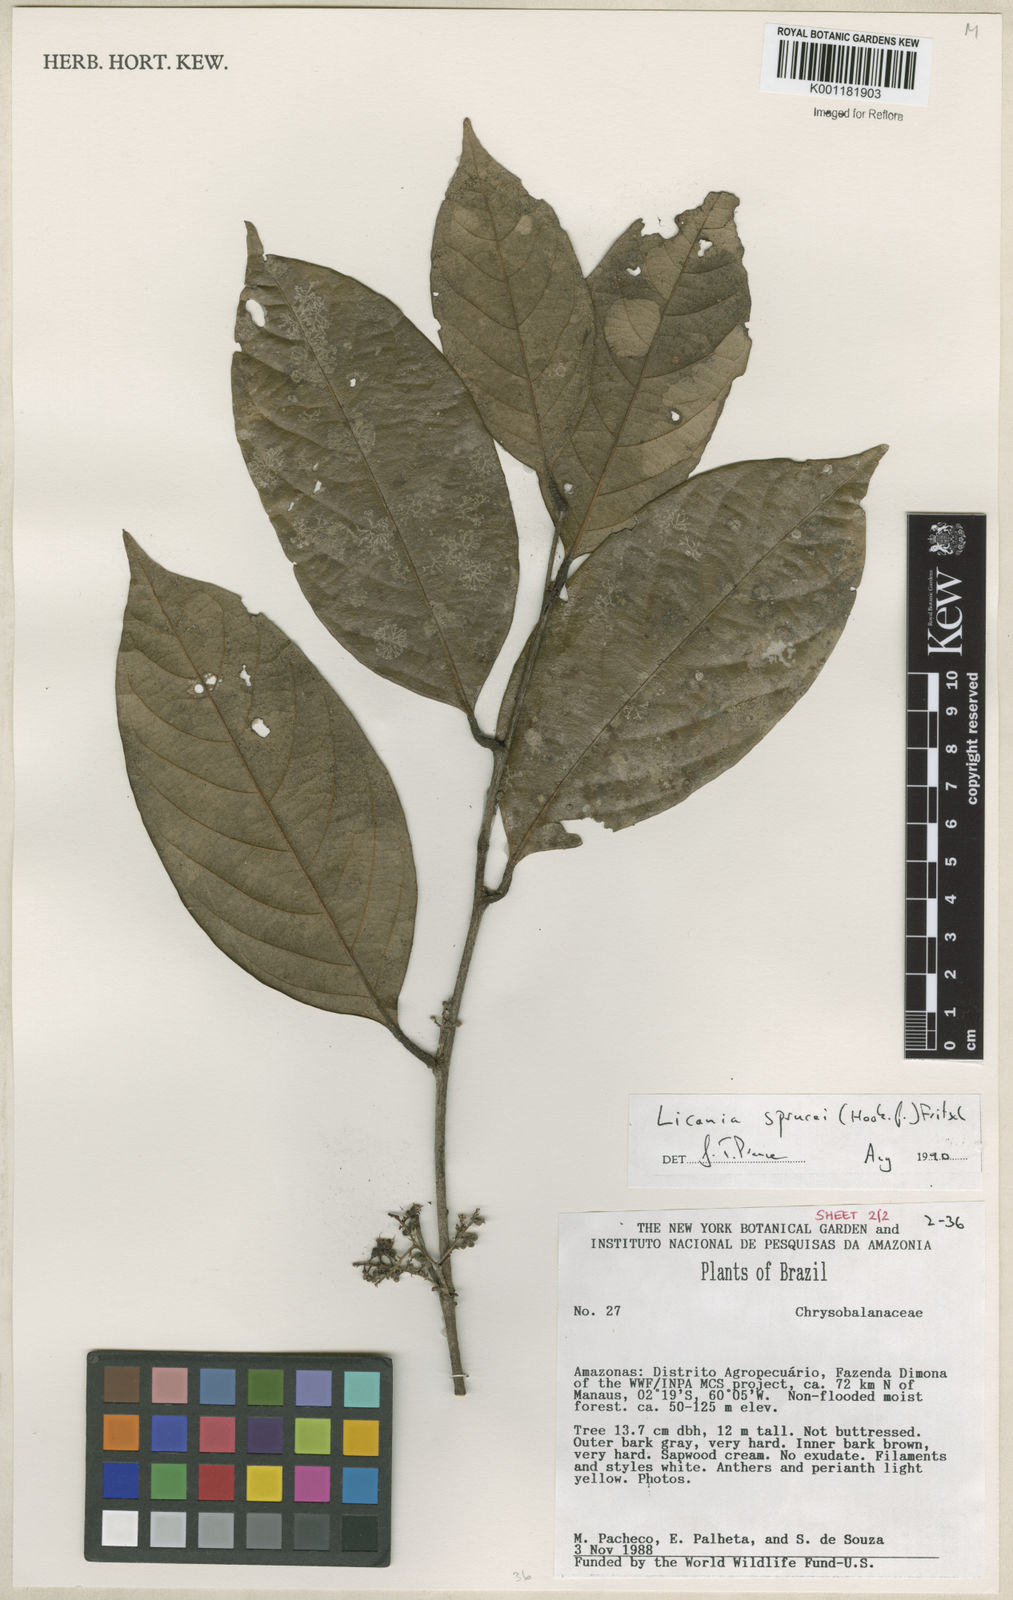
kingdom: Plantae
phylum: Tracheophyta
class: Magnoliopsida
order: Malpighiales
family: Chrysobalanaceae
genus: Leptobalanus
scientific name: Leptobalanus sprucei
